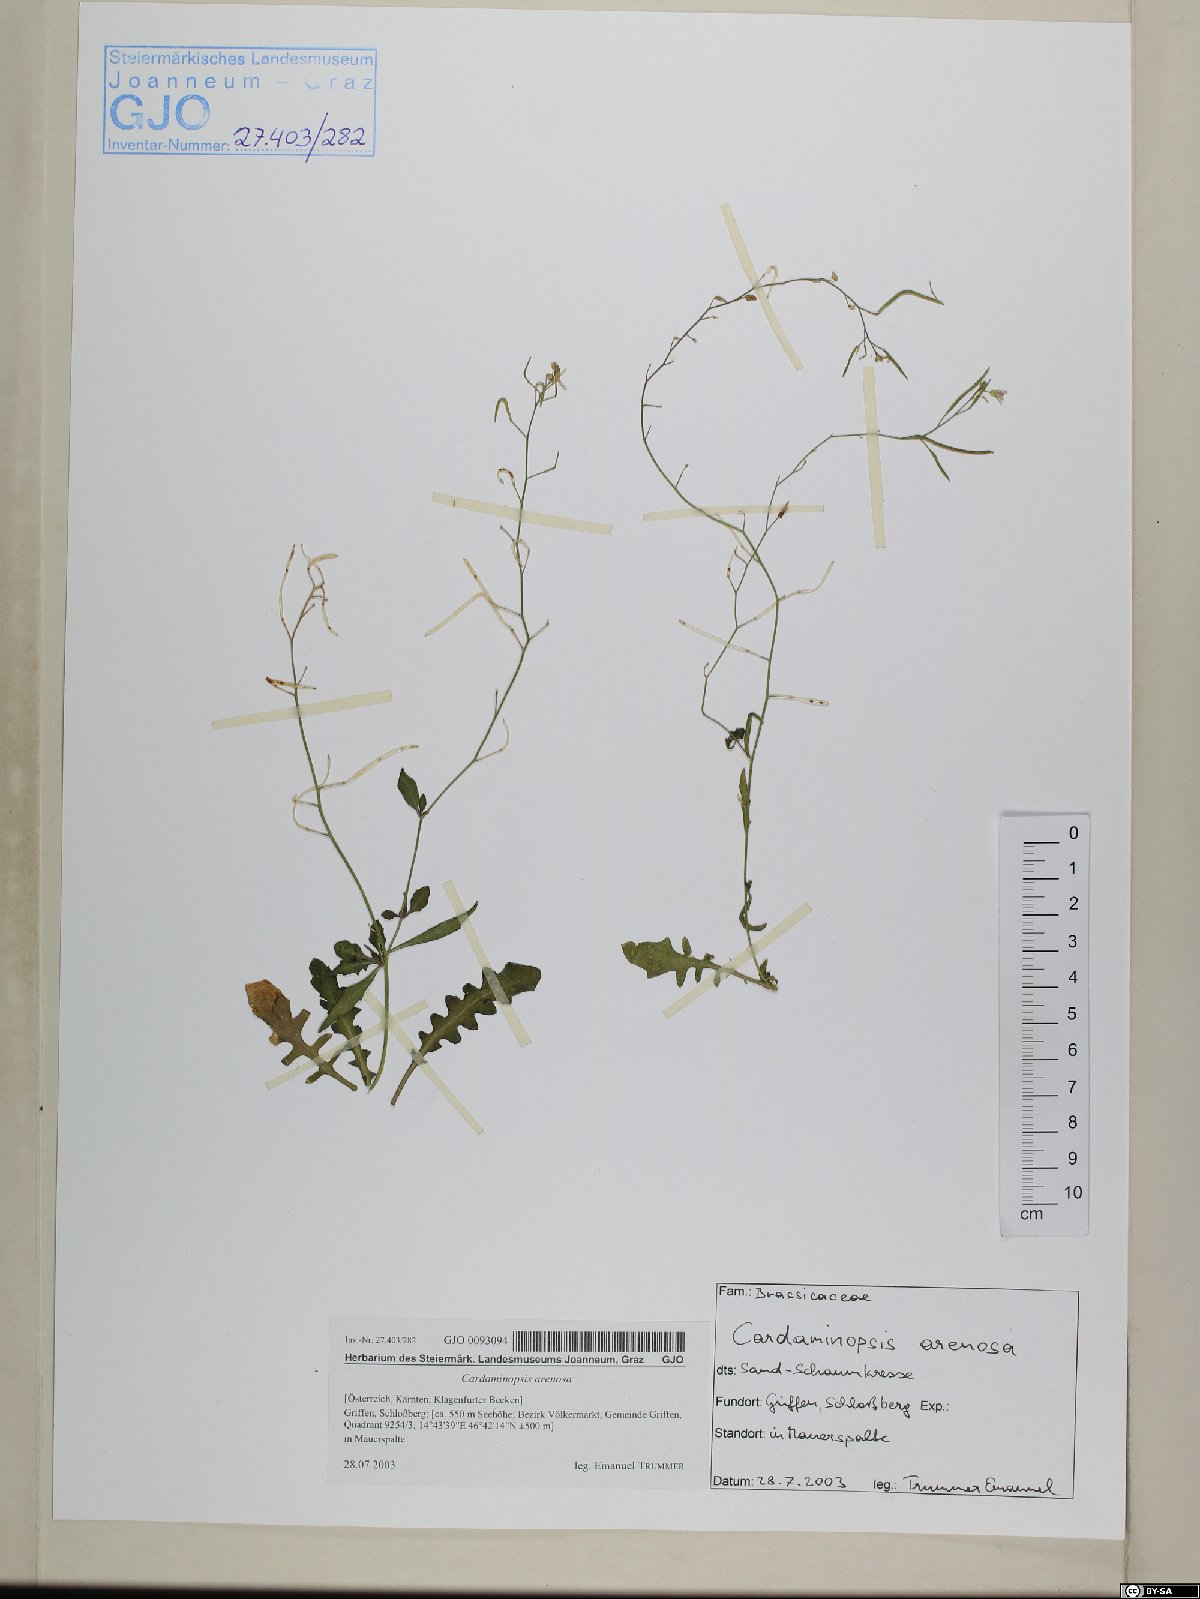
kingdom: Plantae
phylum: Tracheophyta
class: Magnoliopsida
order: Brassicales
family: Brassicaceae
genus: Arabidopsis
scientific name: Arabidopsis arenosa
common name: Sand rock-cress
